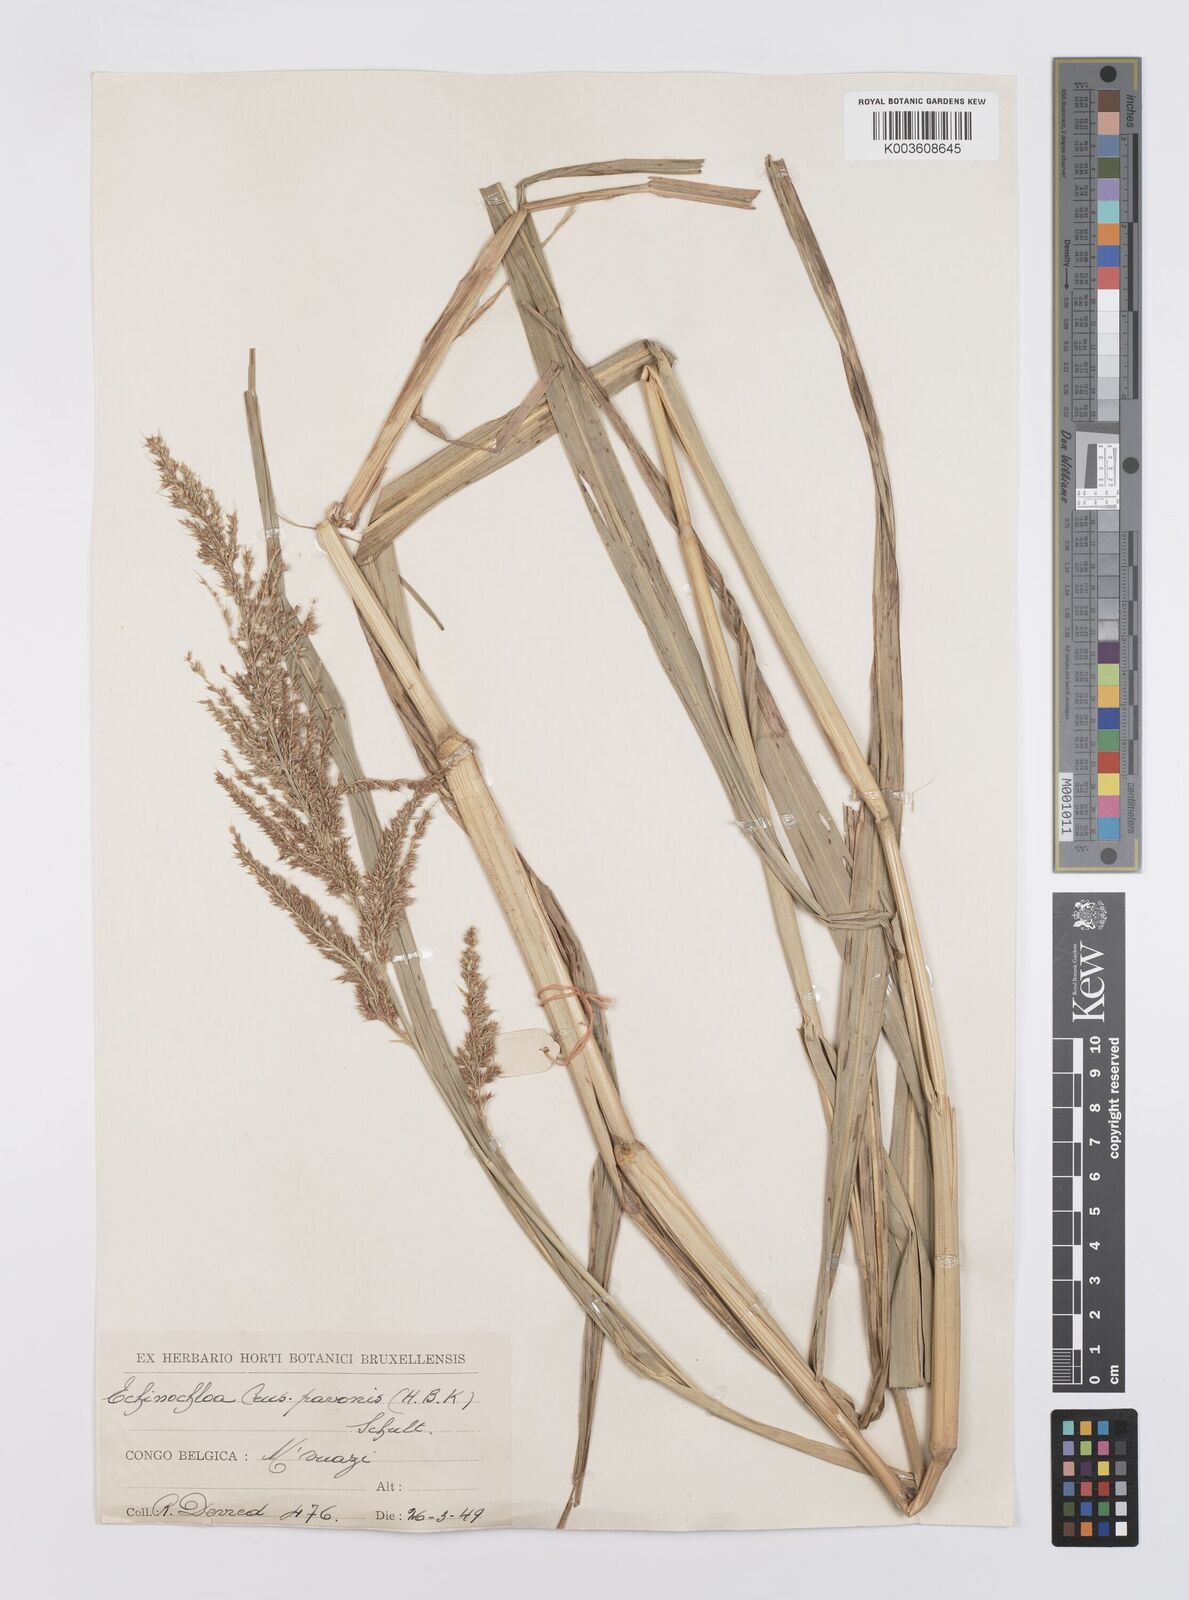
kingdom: Plantae
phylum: Tracheophyta
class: Liliopsida
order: Poales
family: Poaceae
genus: Echinochloa
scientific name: Echinochloa crus-pavonis
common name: Gulf cockspur grass
